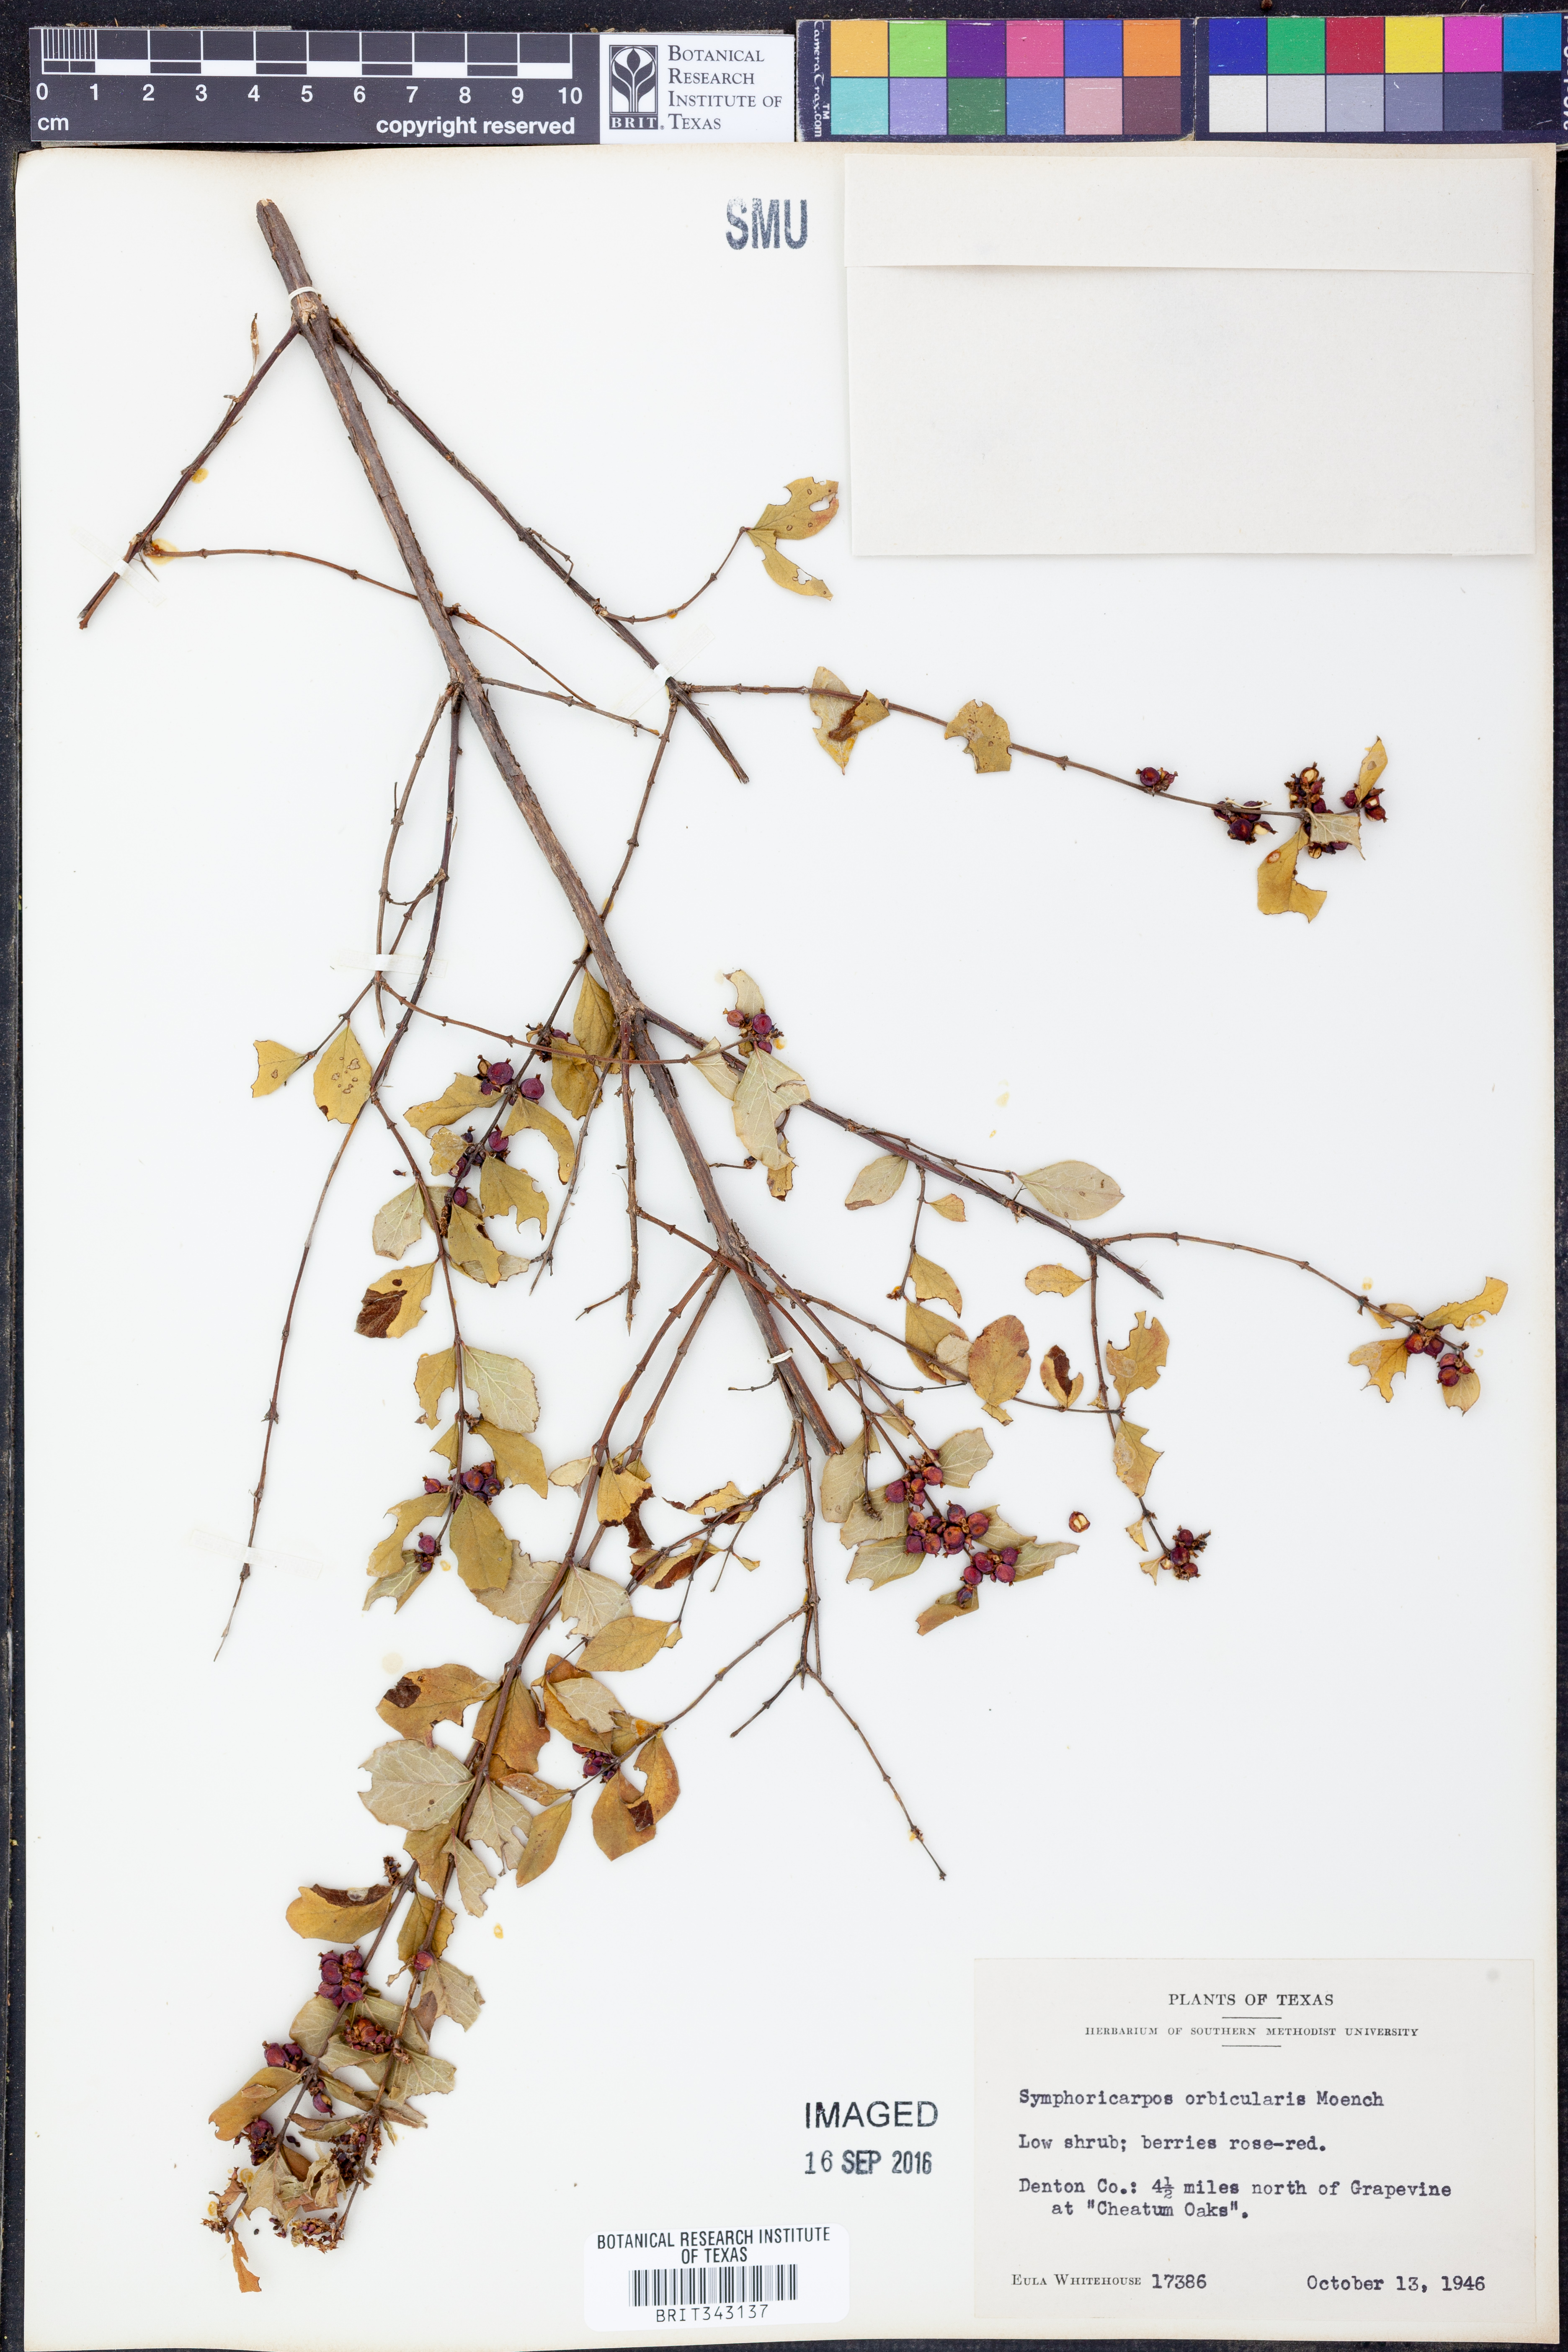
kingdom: Plantae
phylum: Tracheophyta
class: Magnoliopsida
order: Dipsacales
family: Caprifoliaceae
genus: Symphoricarpos
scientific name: Symphoricarpos orbiculatus
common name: Coralberry
